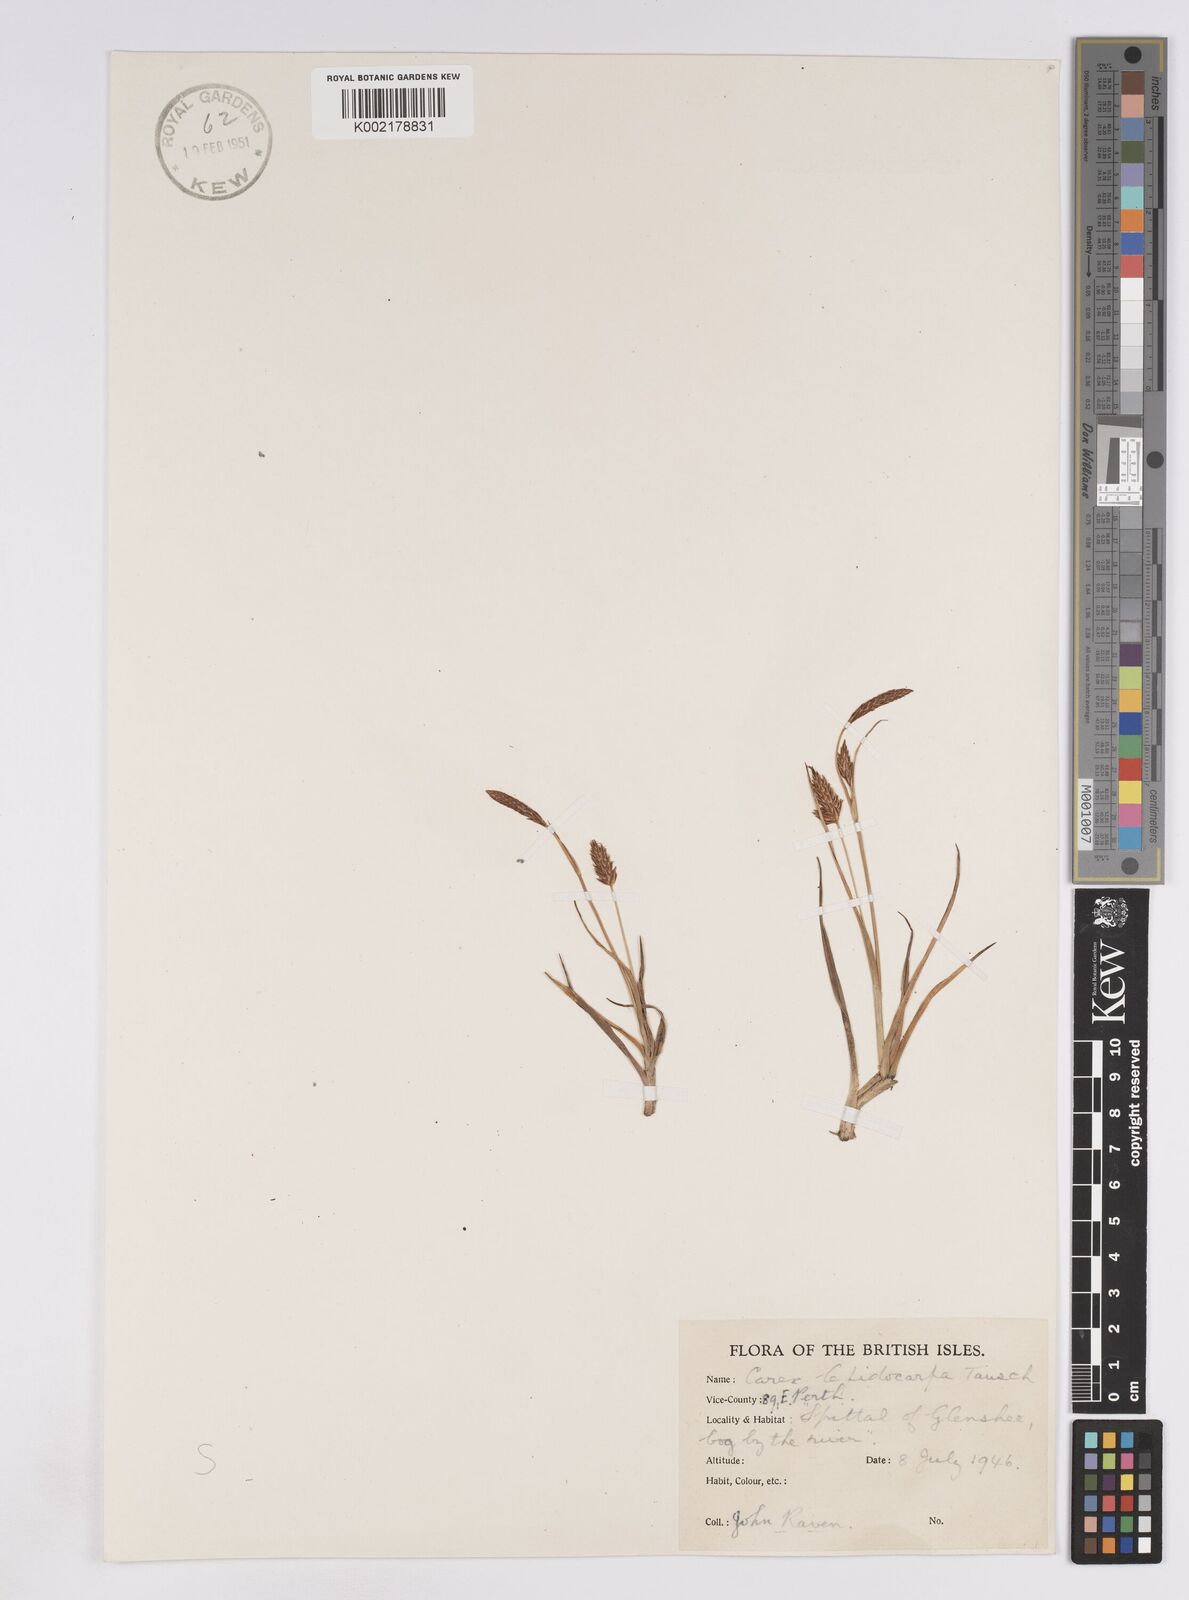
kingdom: Plantae
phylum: Tracheophyta
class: Liliopsida
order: Poales
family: Cyperaceae
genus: Carex
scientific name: Carex lepidocarpa
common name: Long-stalked yellow-sedge
